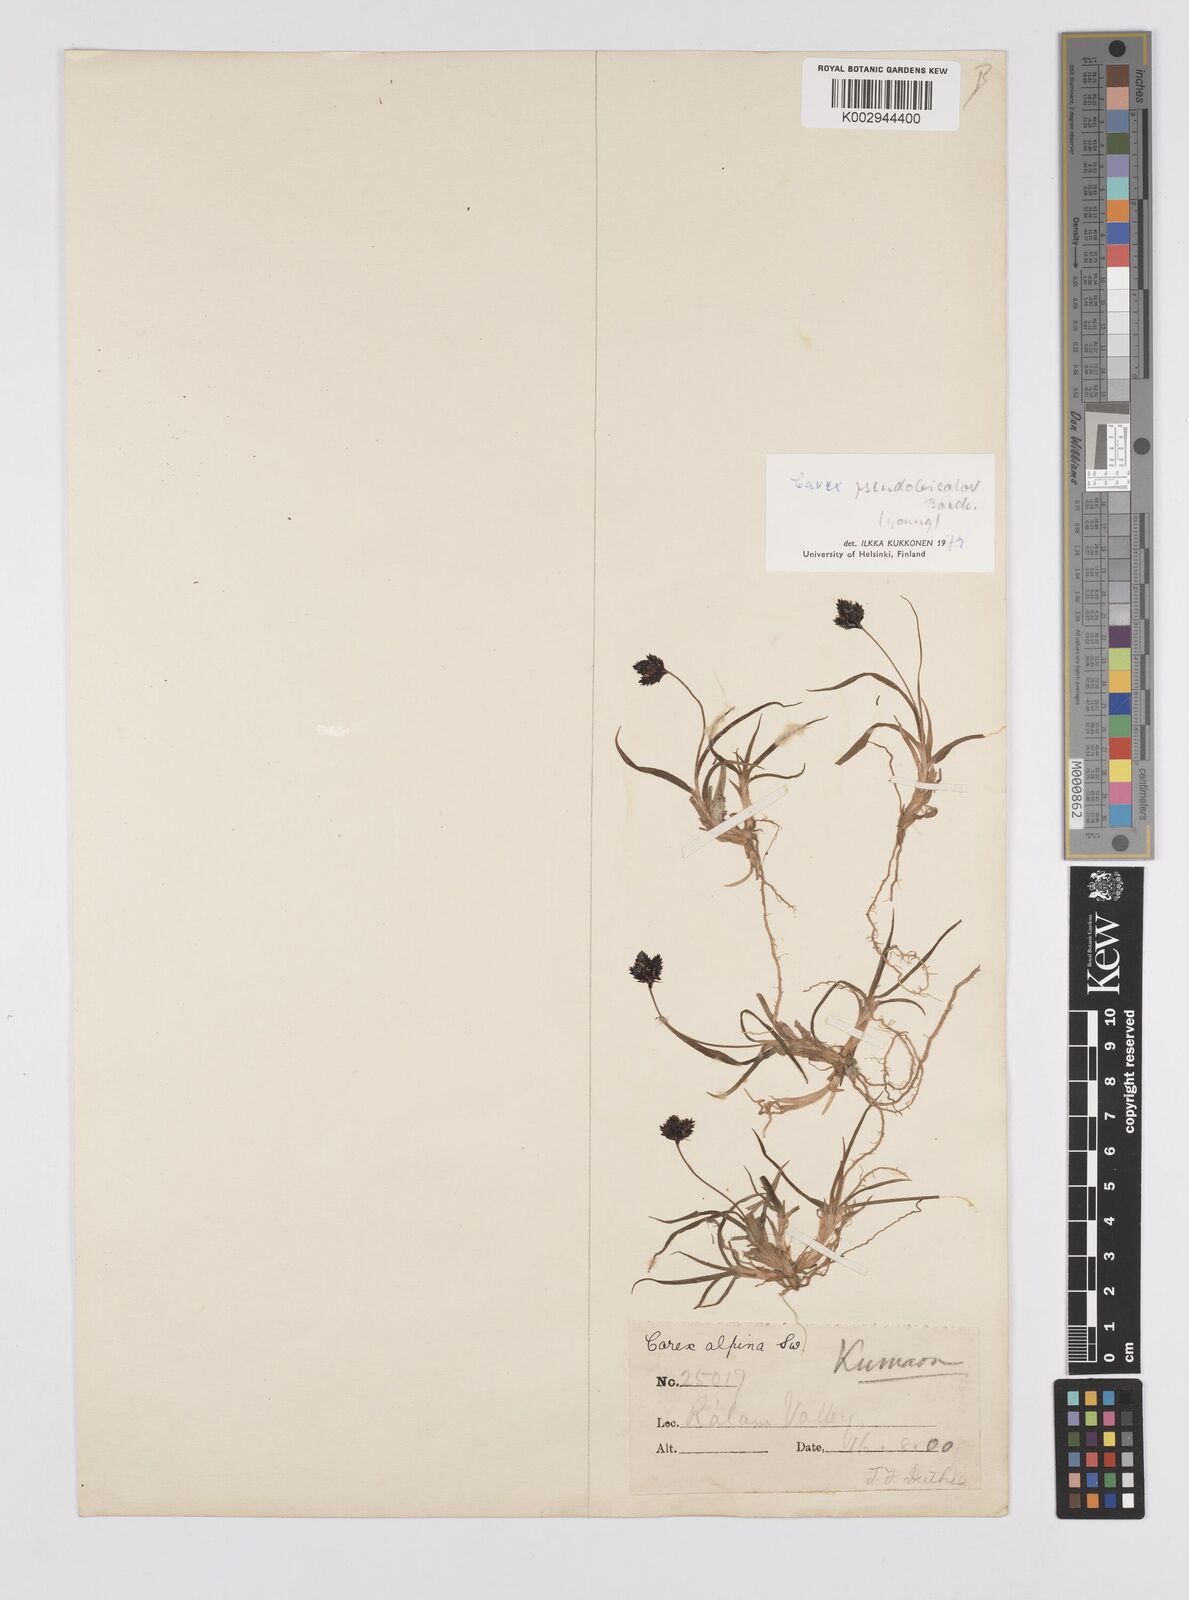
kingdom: Plantae
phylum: Tracheophyta
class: Liliopsida
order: Poales
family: Cyperaceae
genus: Carex
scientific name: Carex norvegica
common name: Close-headed alpine-sedge
